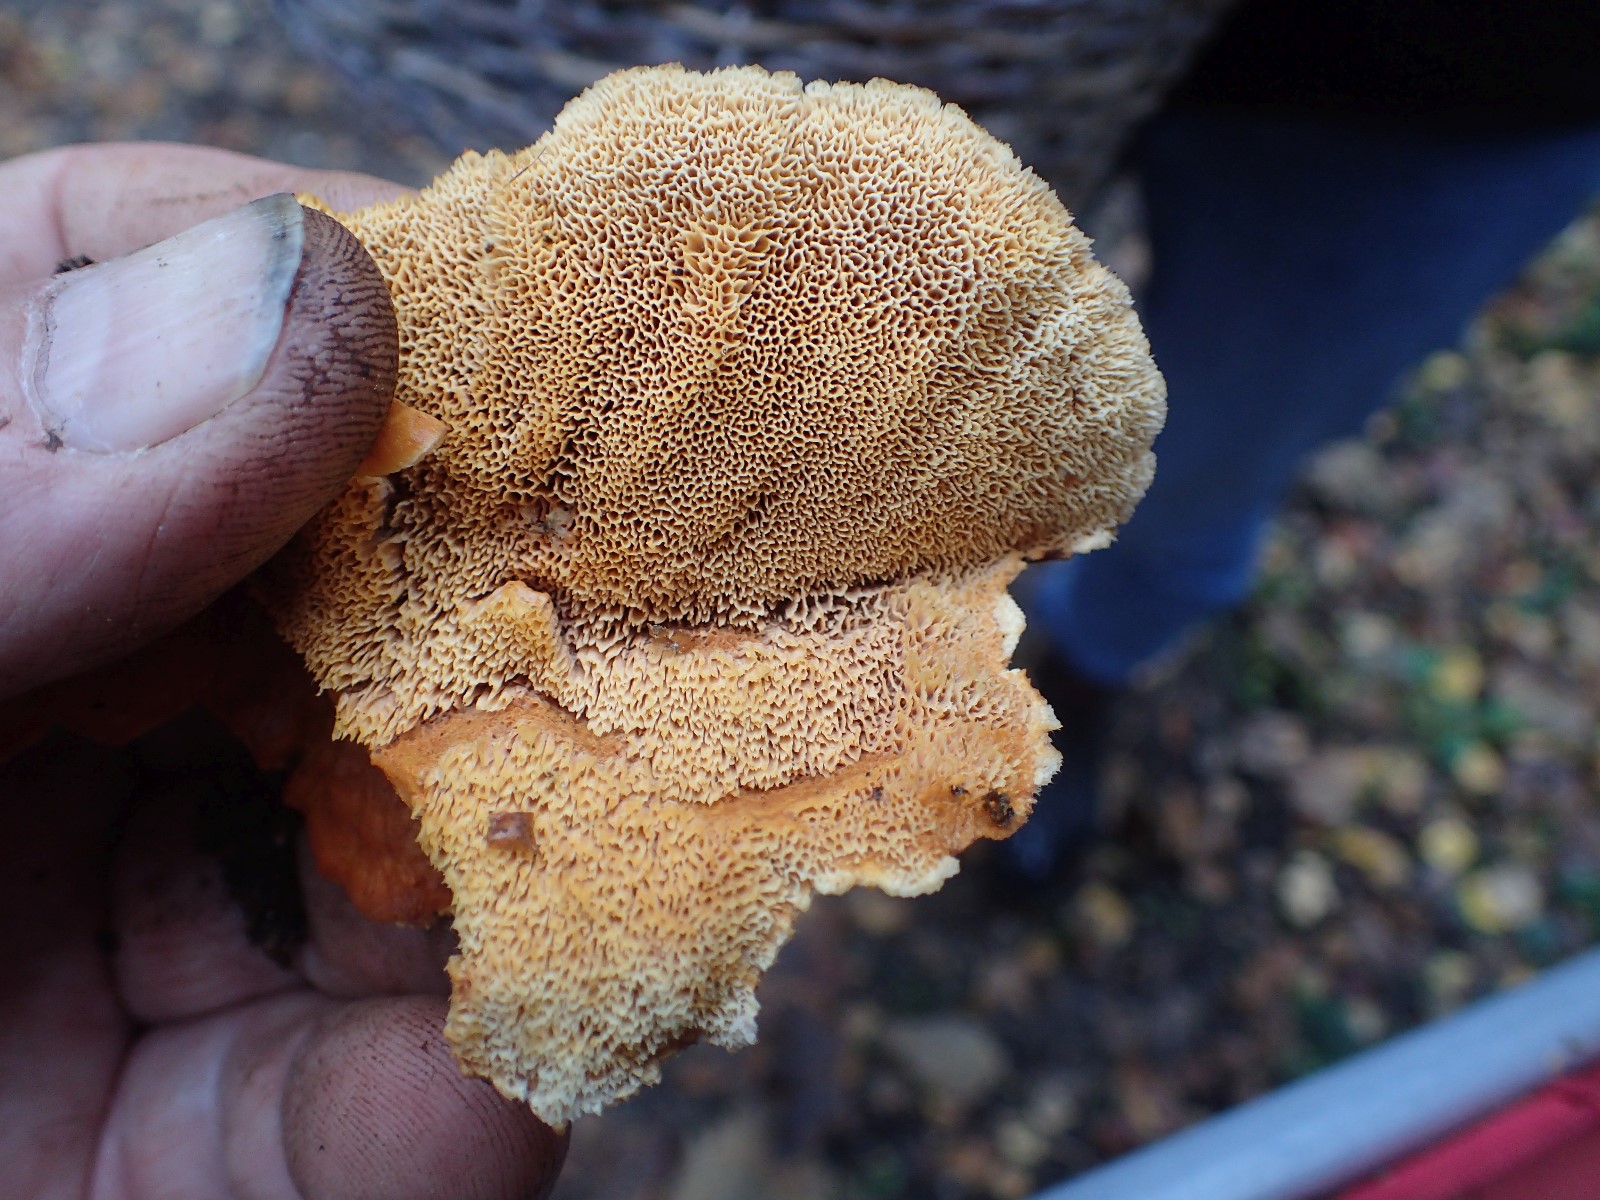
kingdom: Fungi
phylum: Basidiomycota
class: Agaricomycetes
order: Polyporales
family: Pycnoporellaceae
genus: Pycnoporellus
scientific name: Pycnoporellus fulgens
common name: flammeporesvamp
